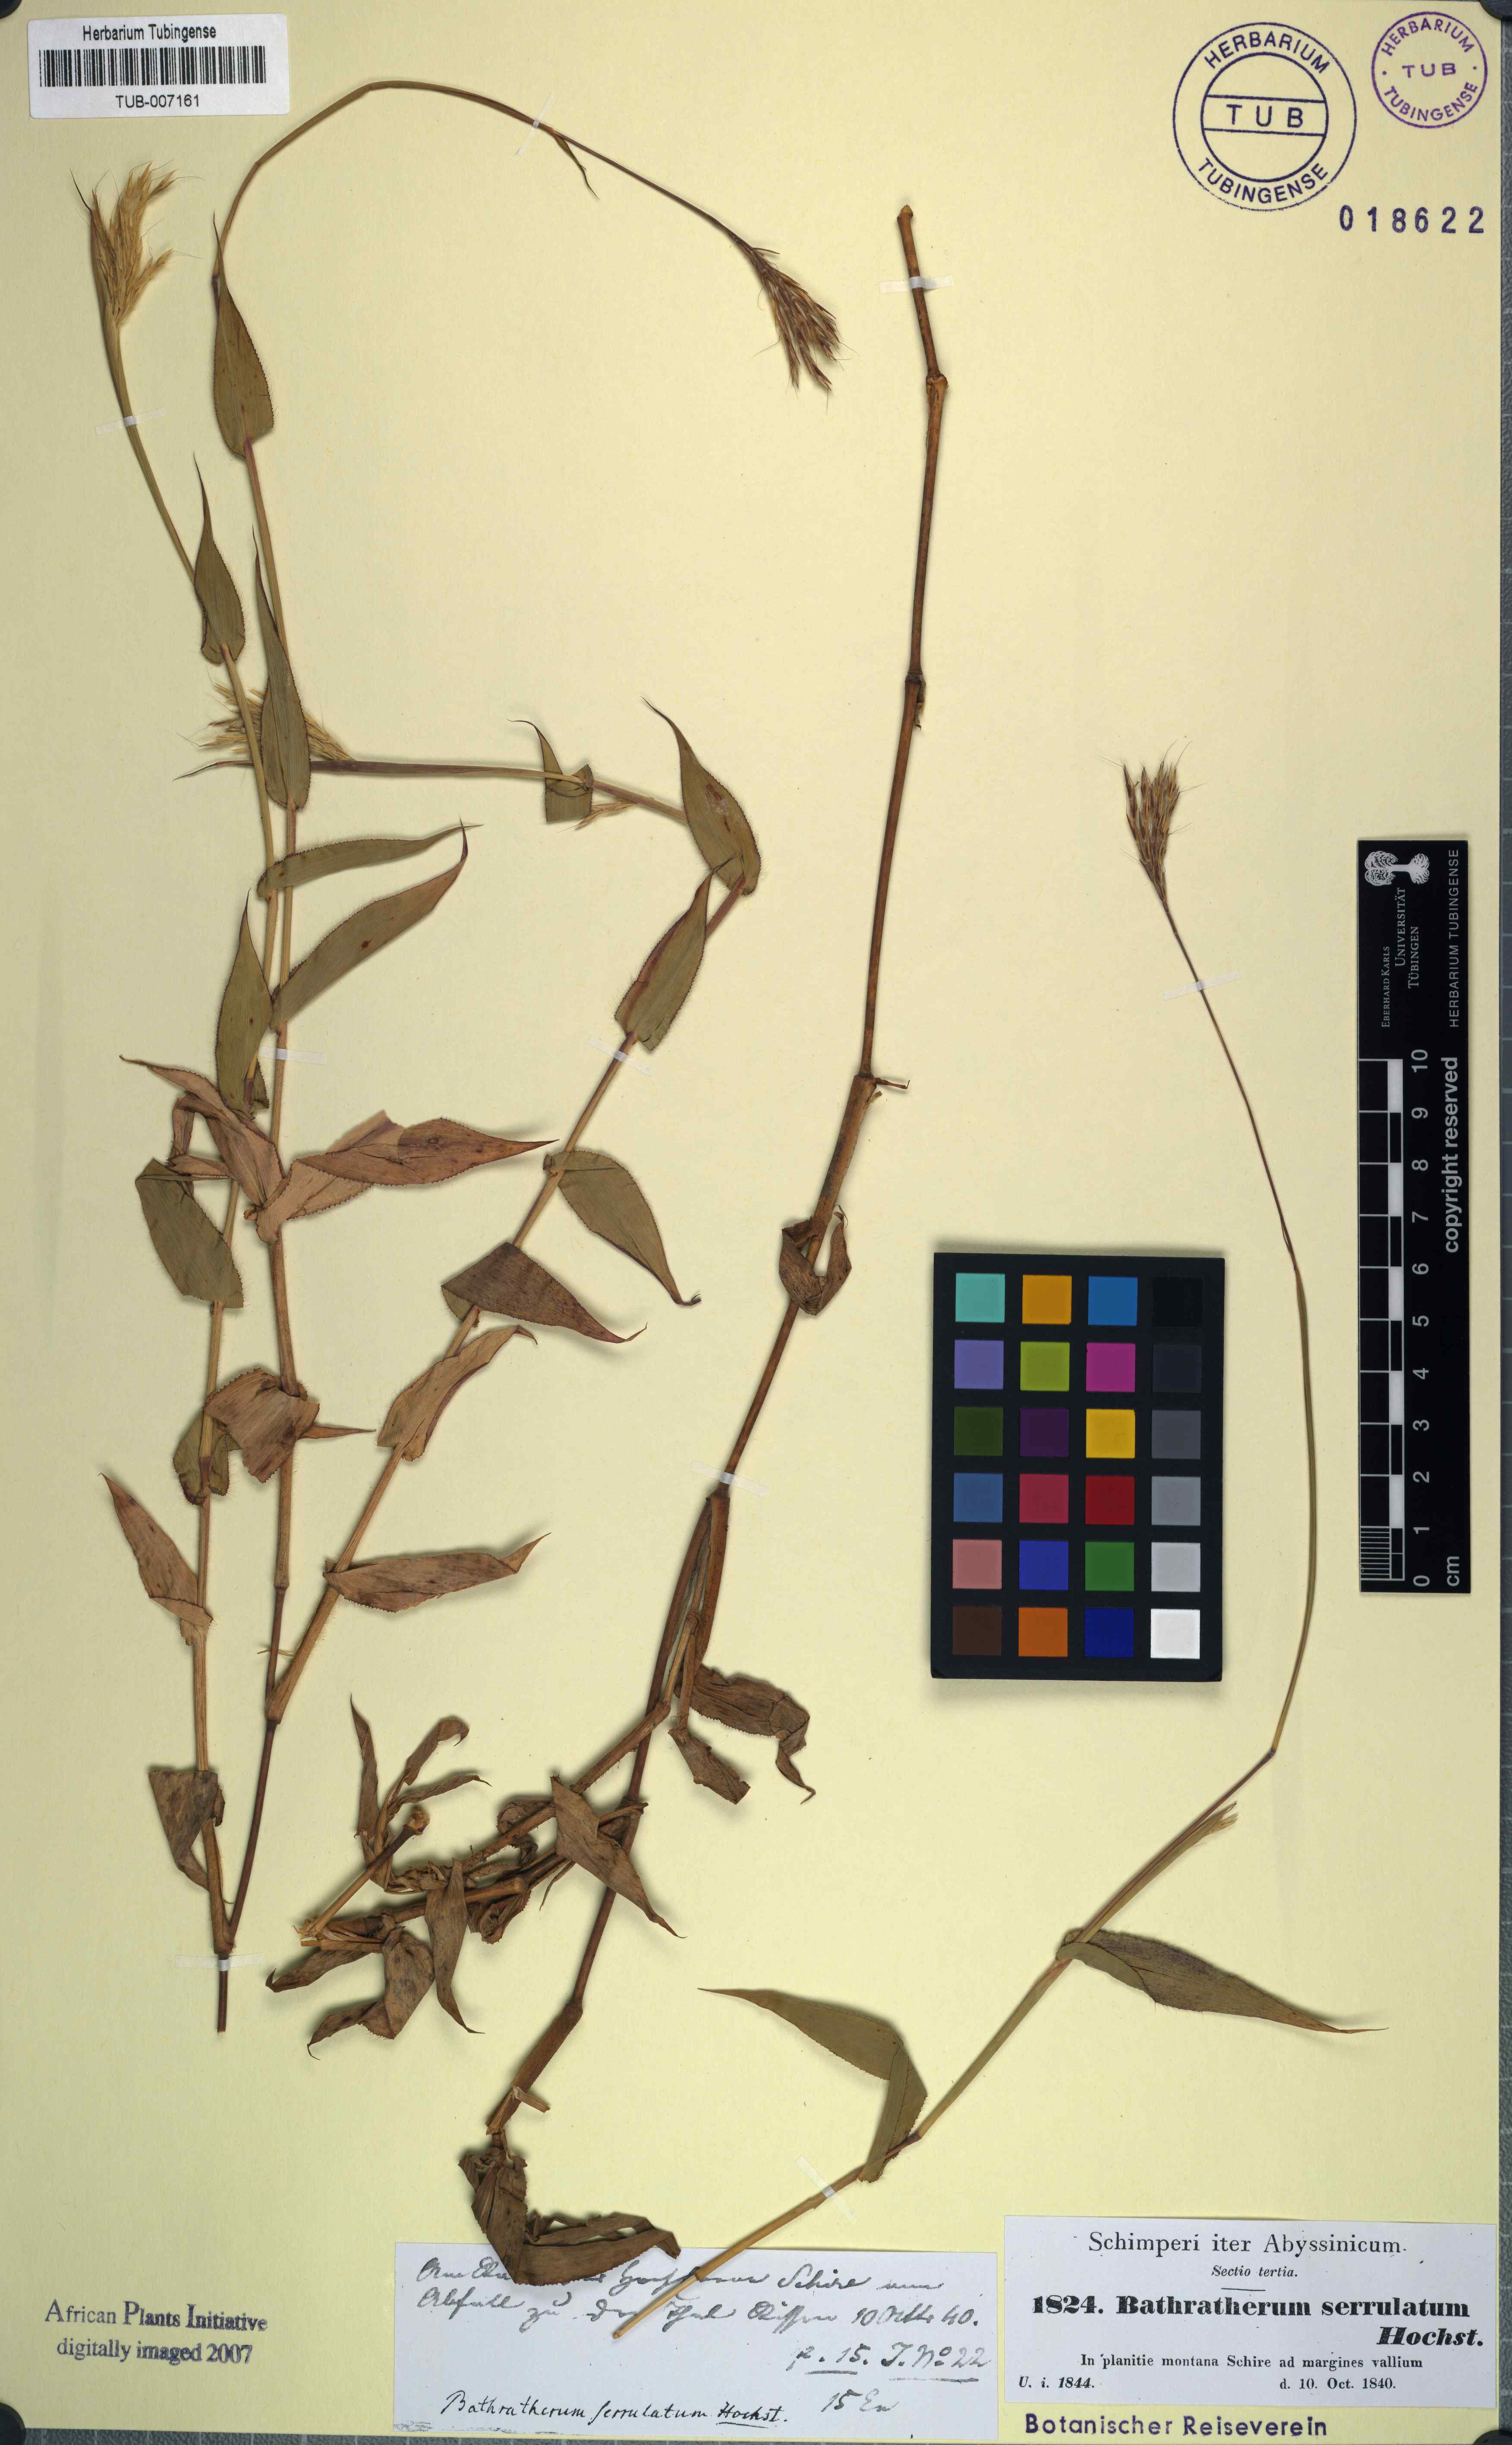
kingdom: Plantae
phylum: Tracheophyta
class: Liliopsida
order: Poales
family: Poaceae
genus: Arthraxon
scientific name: Arthraxon lanceolatus
